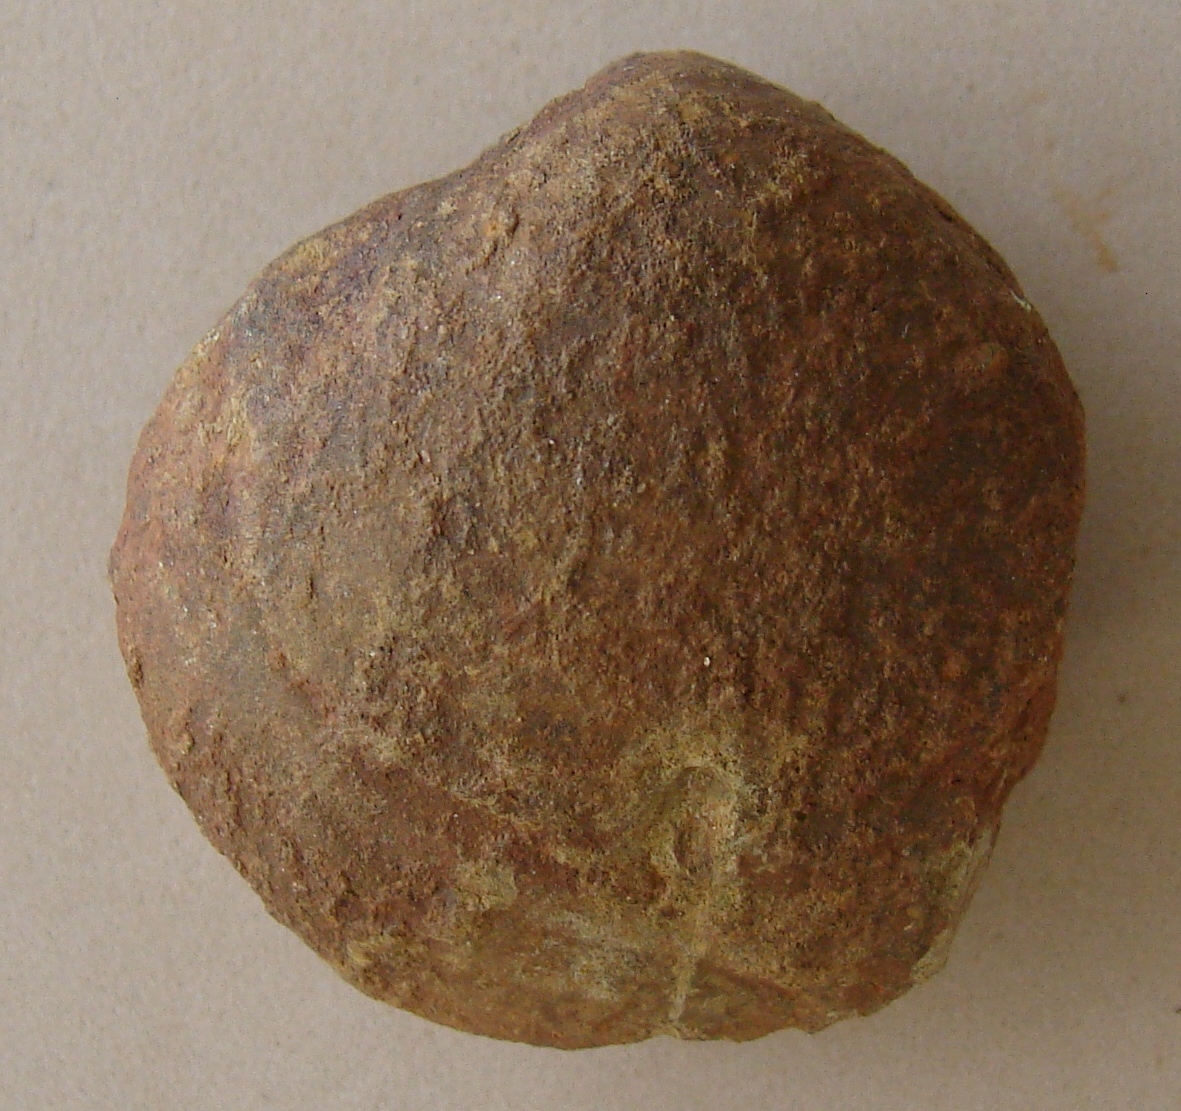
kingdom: Animalia
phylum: Mollusca
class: Bivalvia
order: Venerida
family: Mactridae
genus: Lutraria
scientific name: Lutraria gregaria
